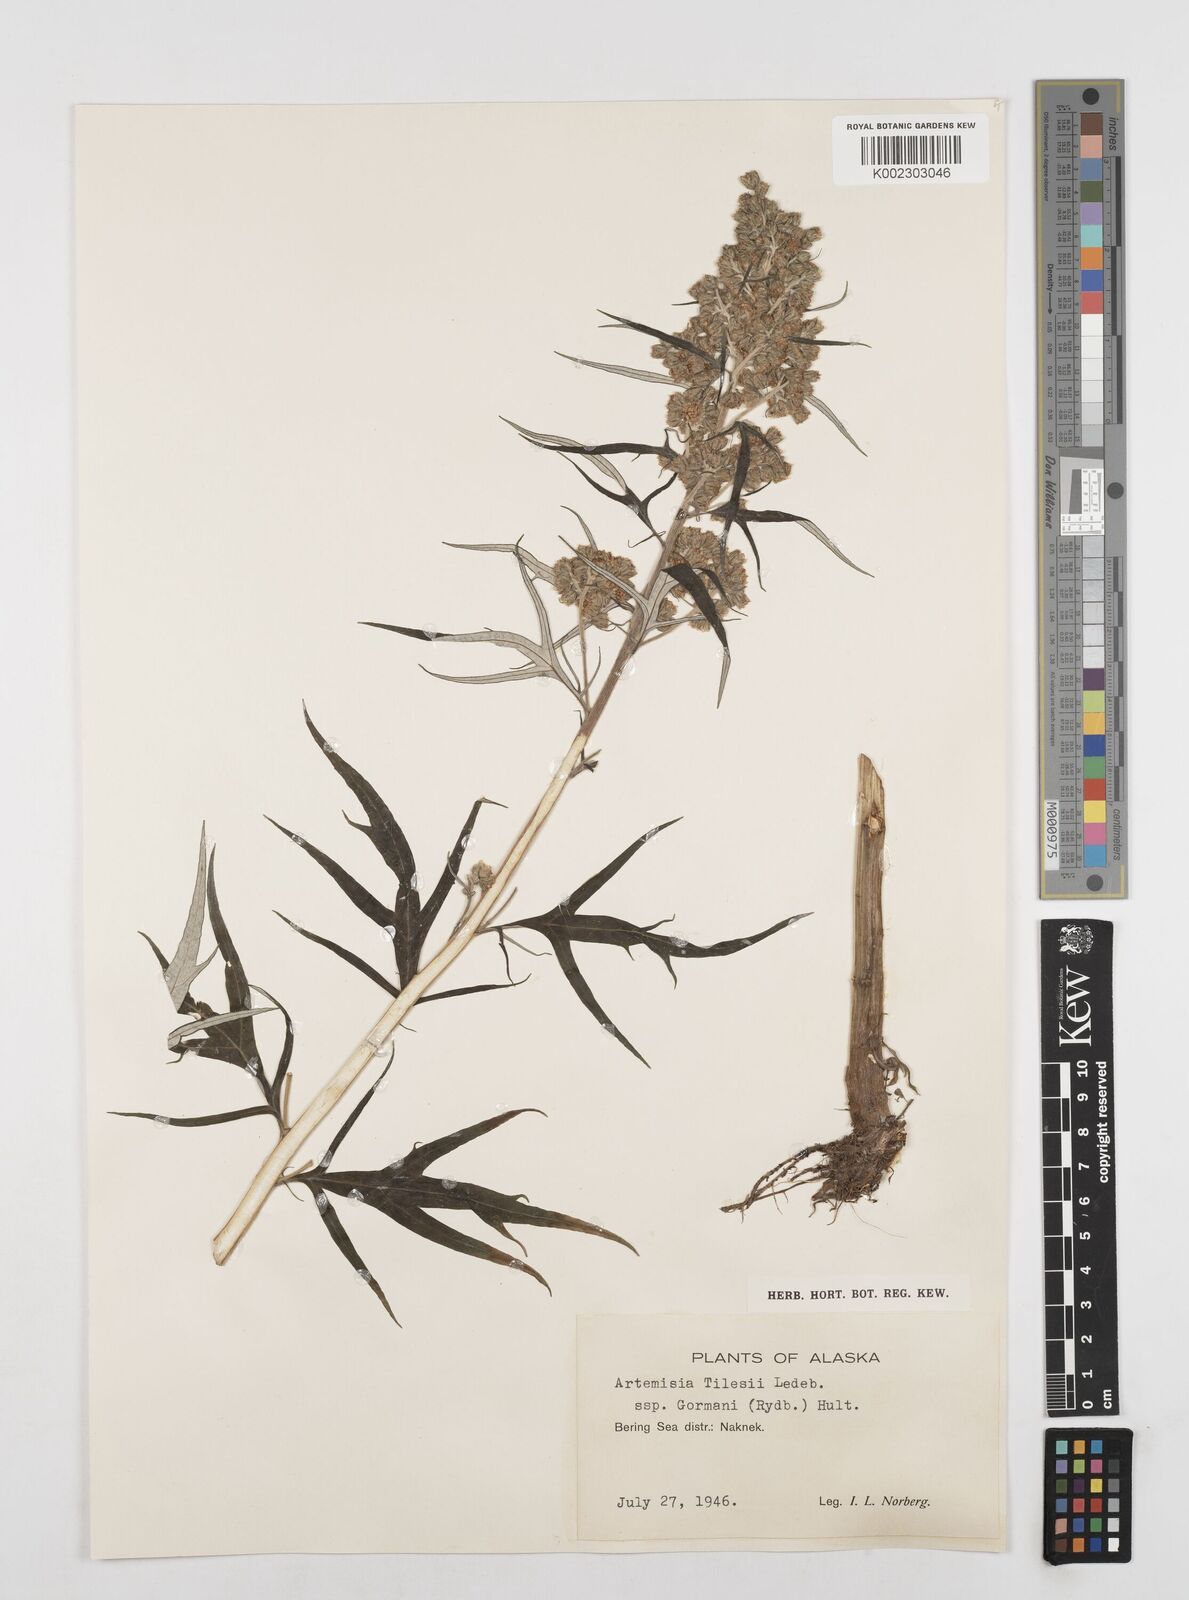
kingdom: Plantae
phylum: Tracheophyta
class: Magnoliopsida
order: Asterales
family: Asteraceae
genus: Artemisia
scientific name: Artemisia tilesii
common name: Aleutian mugwort
